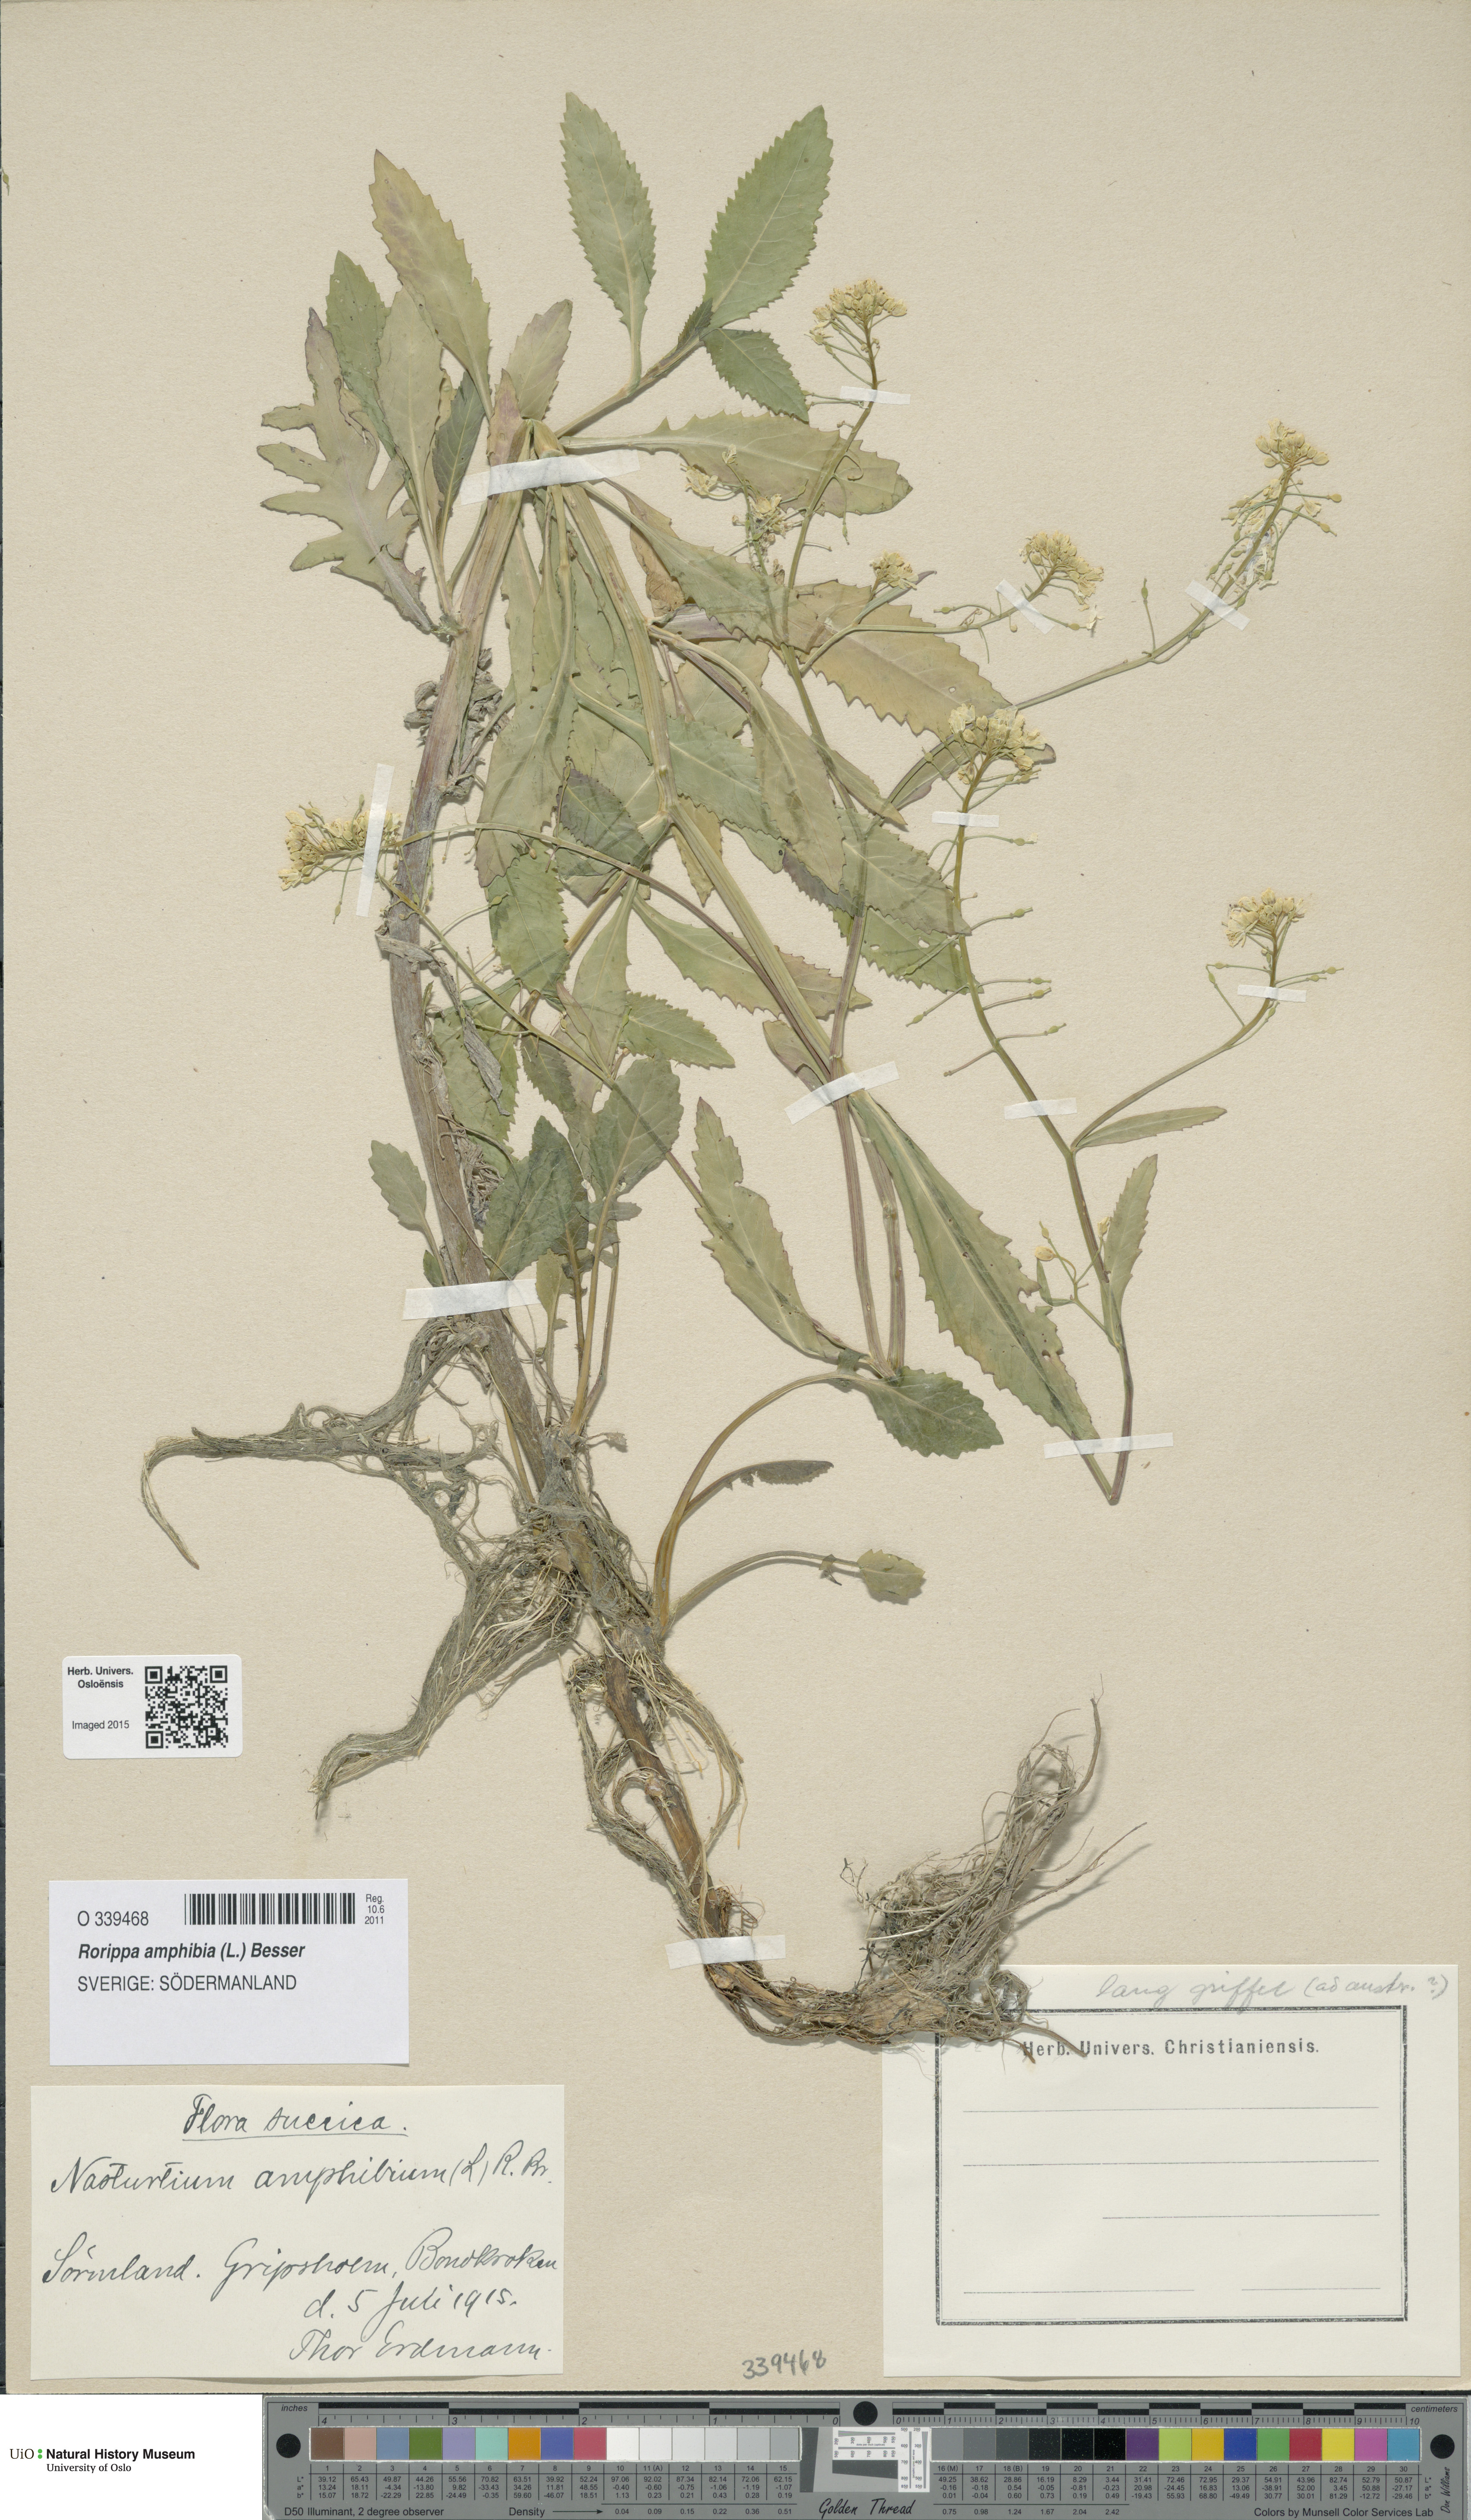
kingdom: Plantae
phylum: Tracheophyta
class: Magnoliopsida
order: Brassicales
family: Brassicaceae
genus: Rorippa
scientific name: Rorippa amphibia
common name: Great yellow-cress
